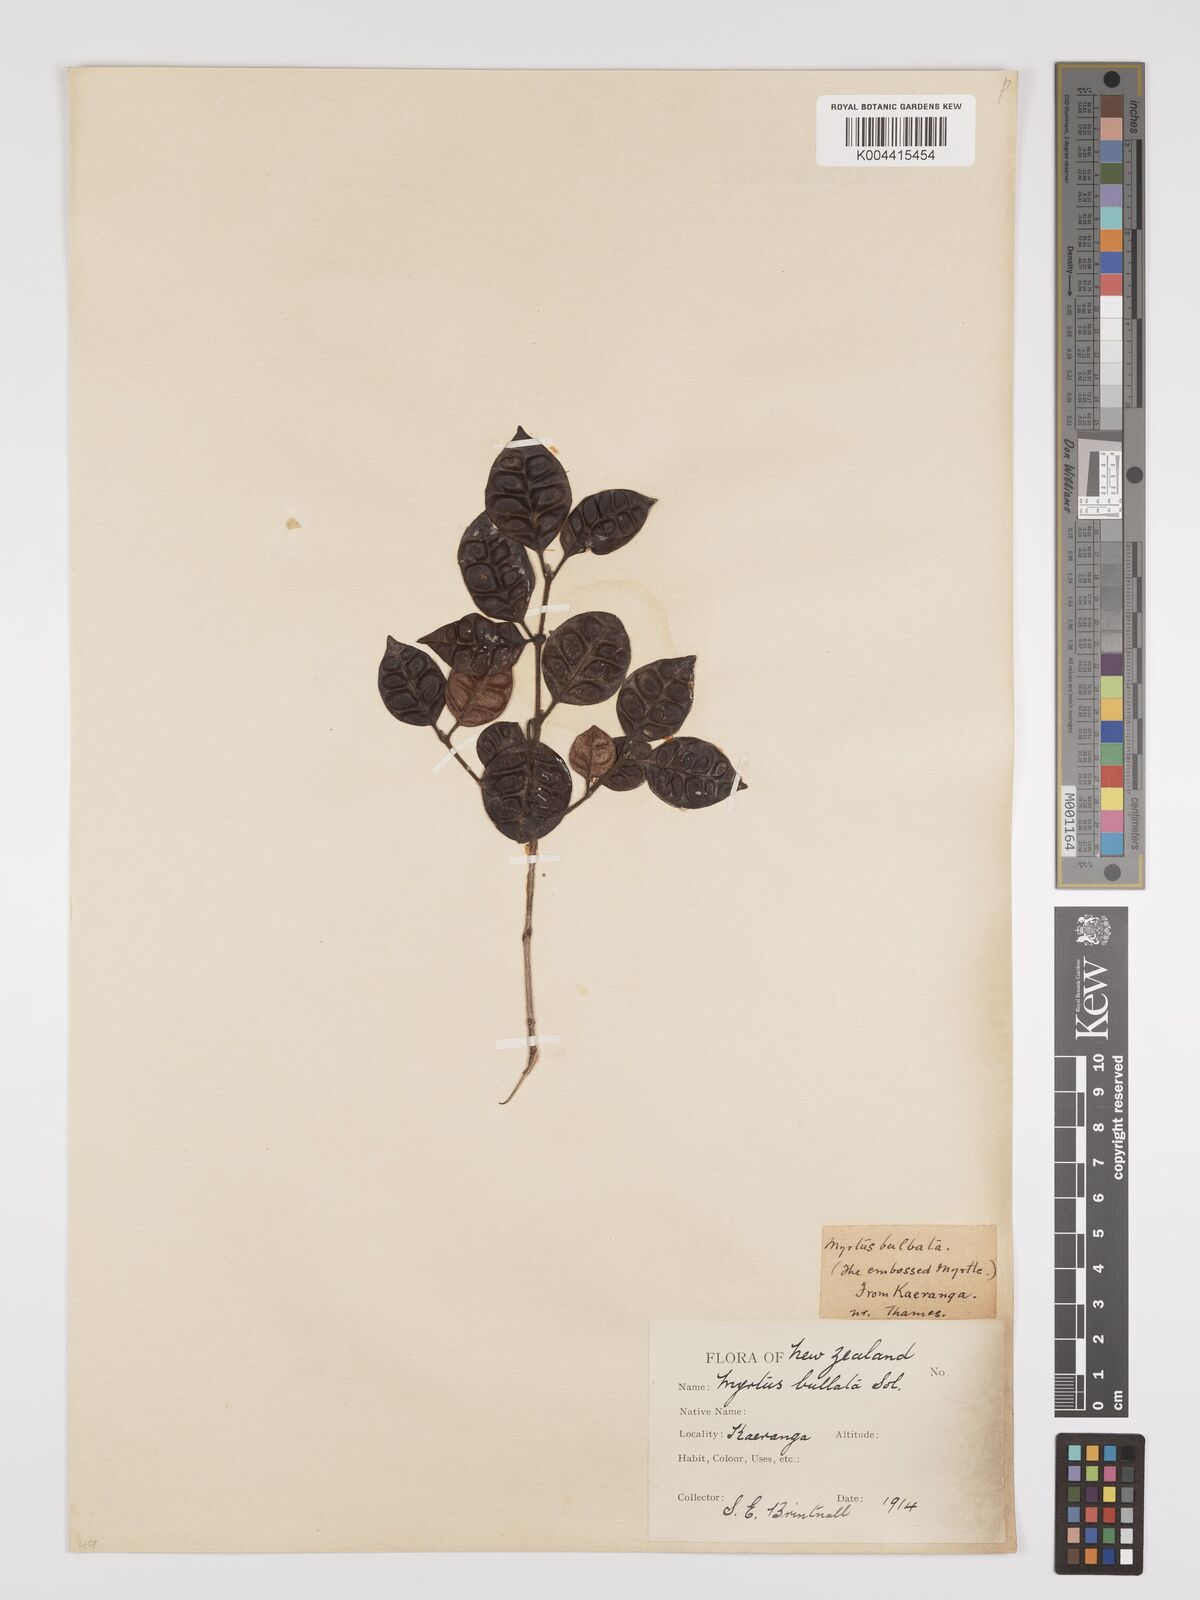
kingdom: Plantae
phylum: Tracheophyta
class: Magnoliopsida
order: Myrtales
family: Myrtaceae
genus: Lophomyrtus
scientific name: Lophomyrtus bullata
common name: Rama rama
